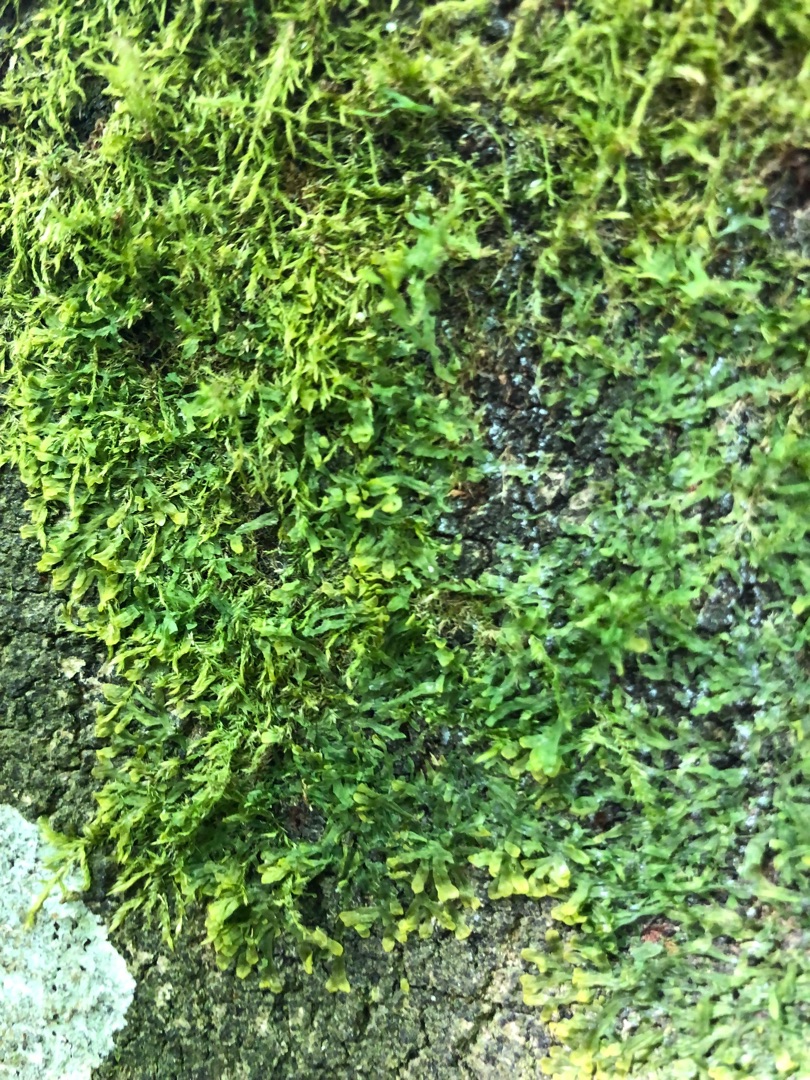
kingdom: Plantae
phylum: Marchantiophyta
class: Jungermanniopsida
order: Metzgeriales
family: Metzgeriaceae
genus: Metzgeria
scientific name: Metzgeria furcata
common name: Almindelig gaffelløv
